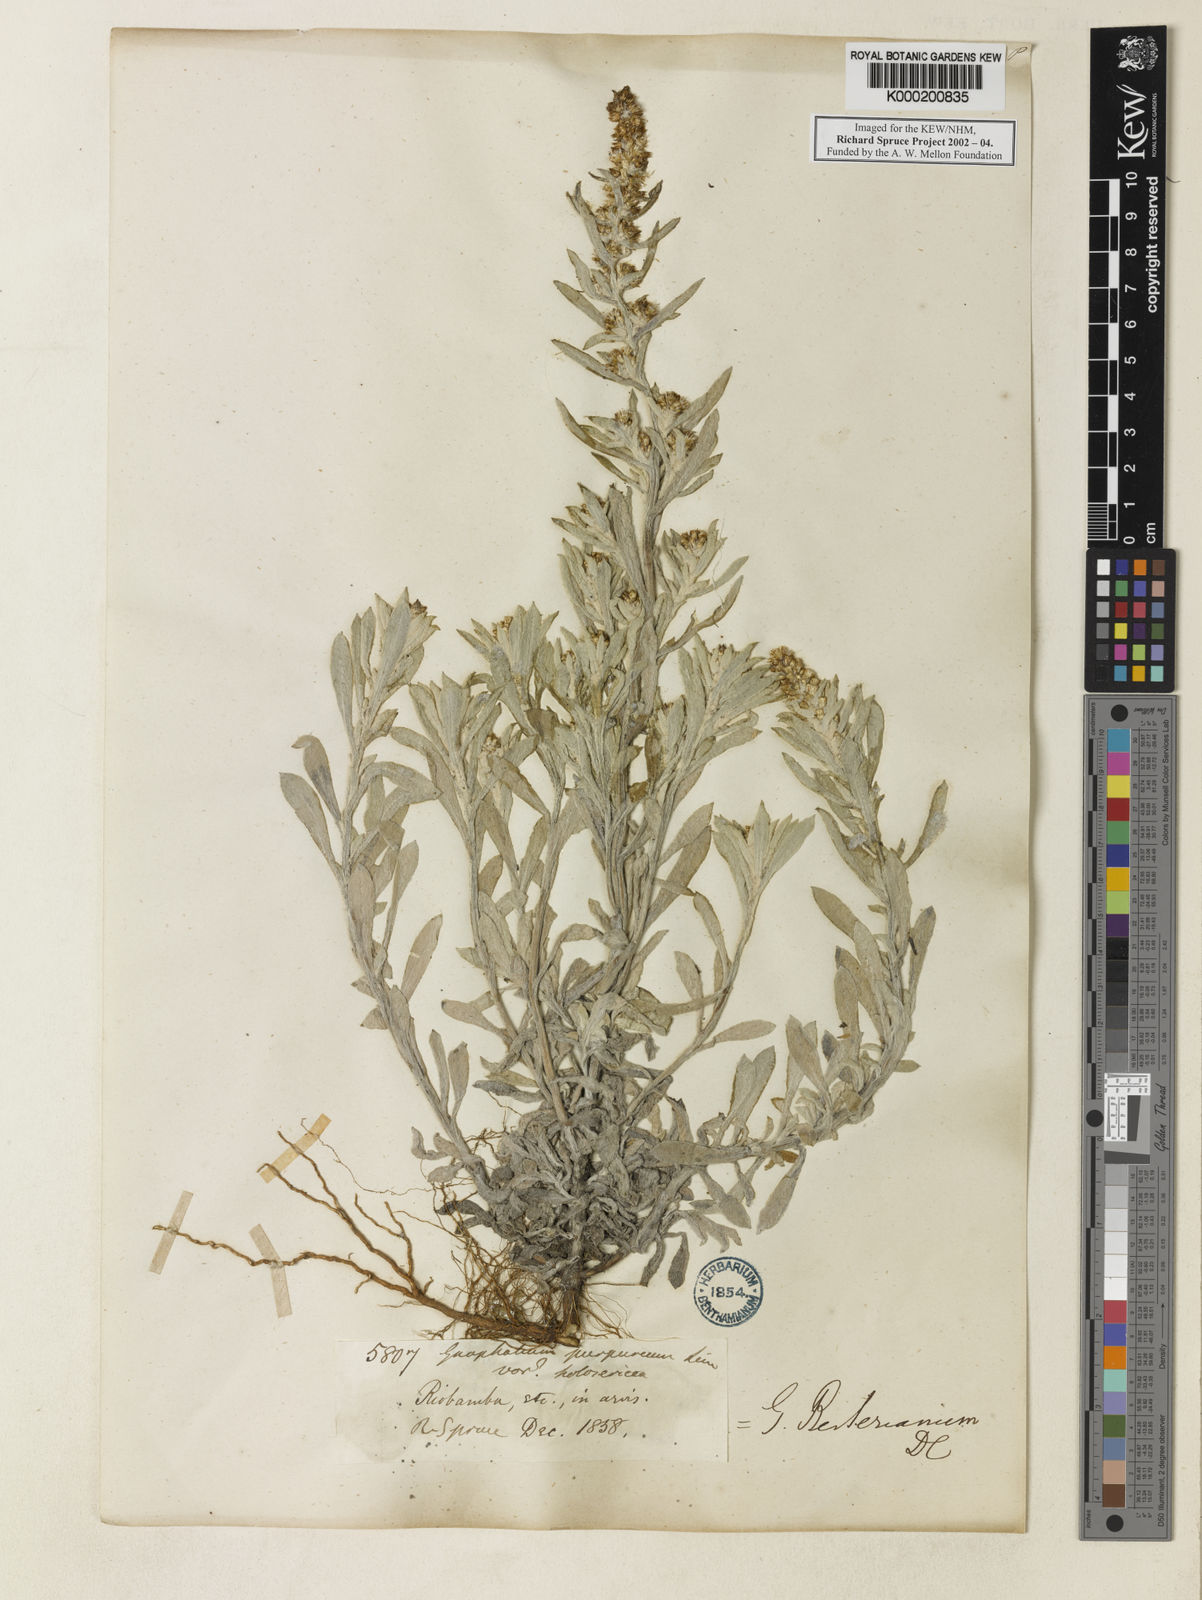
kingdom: Plantae
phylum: Tracheophyta
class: Magnoliopsida
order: Asterales
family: Asteraceae
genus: Gamochaeta
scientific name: Gamochaeta purpurea
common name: Purple cudweed
